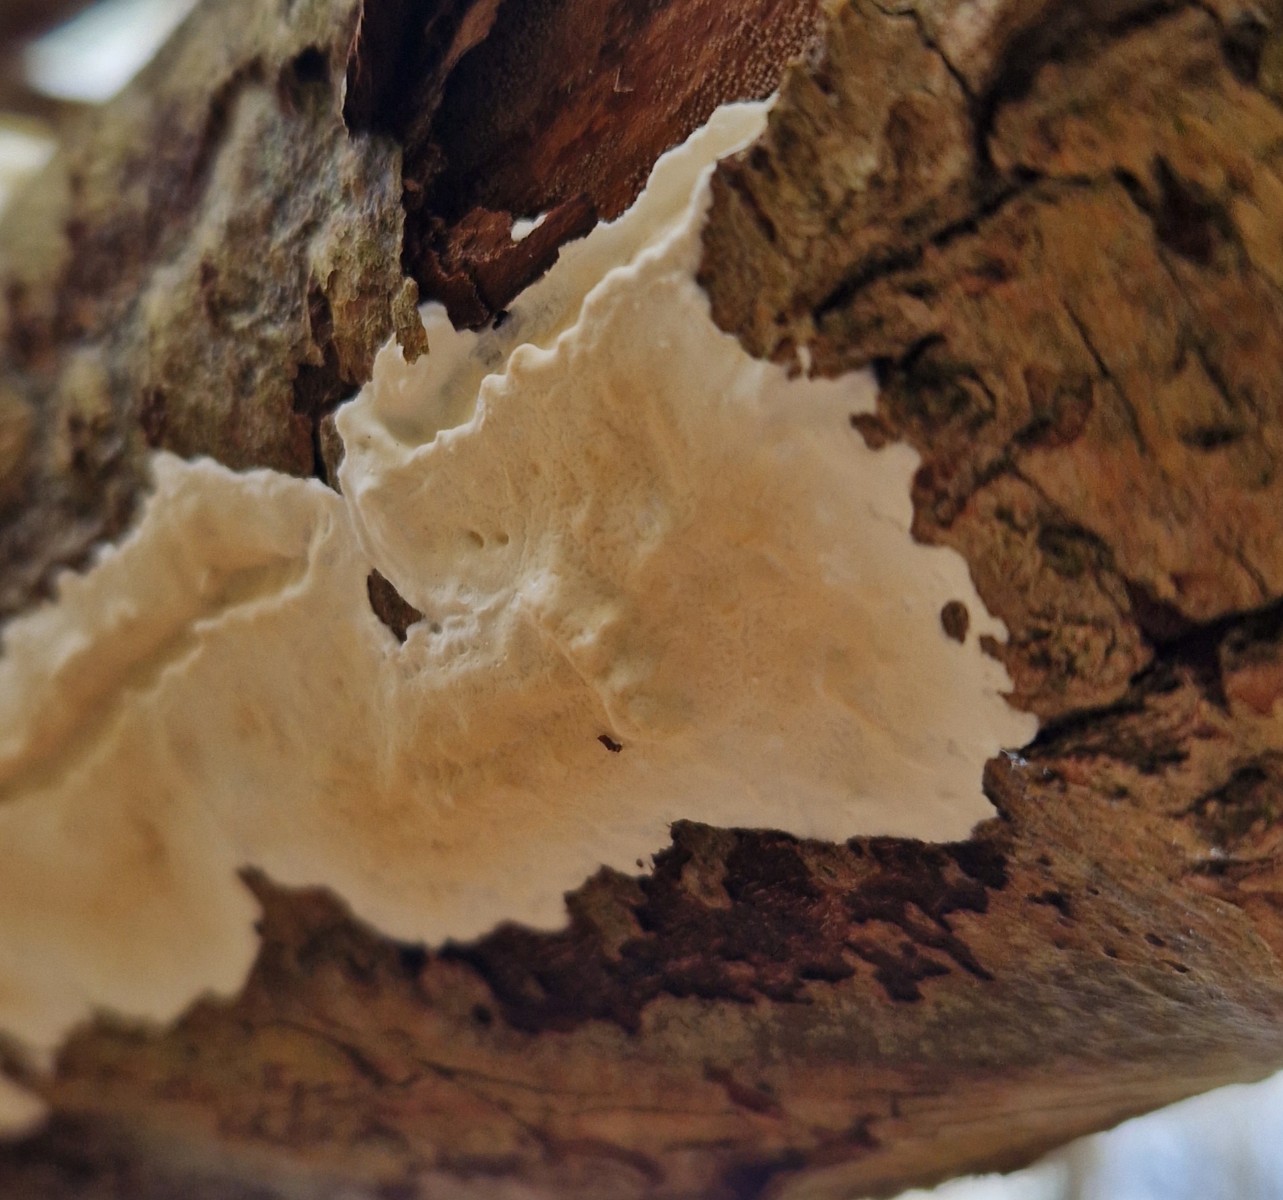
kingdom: Fungi
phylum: Basidiomycota
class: Agaricomycetes
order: Polyporales
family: Irpicaceae
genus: Byssomerulius
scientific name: Byssomerulius corium
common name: læder-åresvamp
